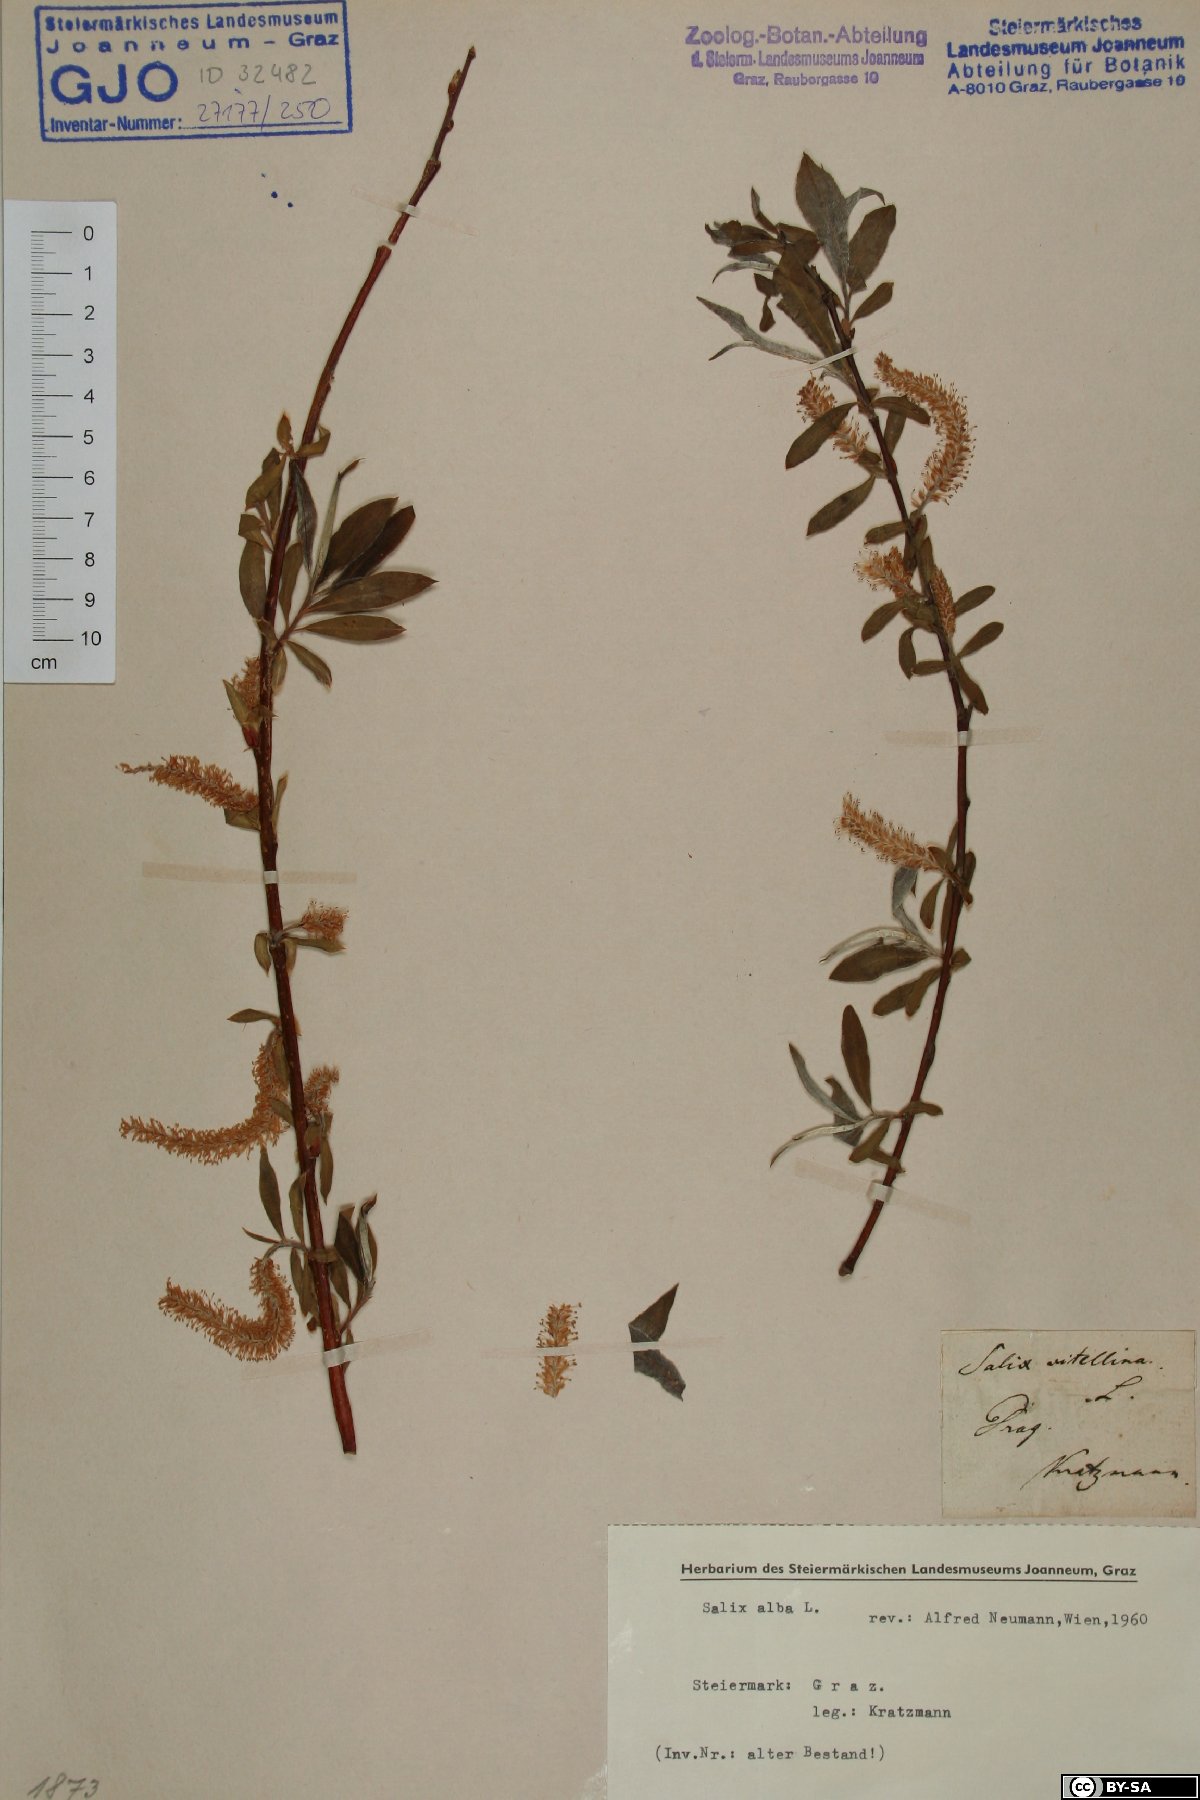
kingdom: Plantae
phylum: Tracheophyta
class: Magnoliopsida
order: Malpighiales
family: Salicaceae
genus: Salix
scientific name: Salix alba
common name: White willow
